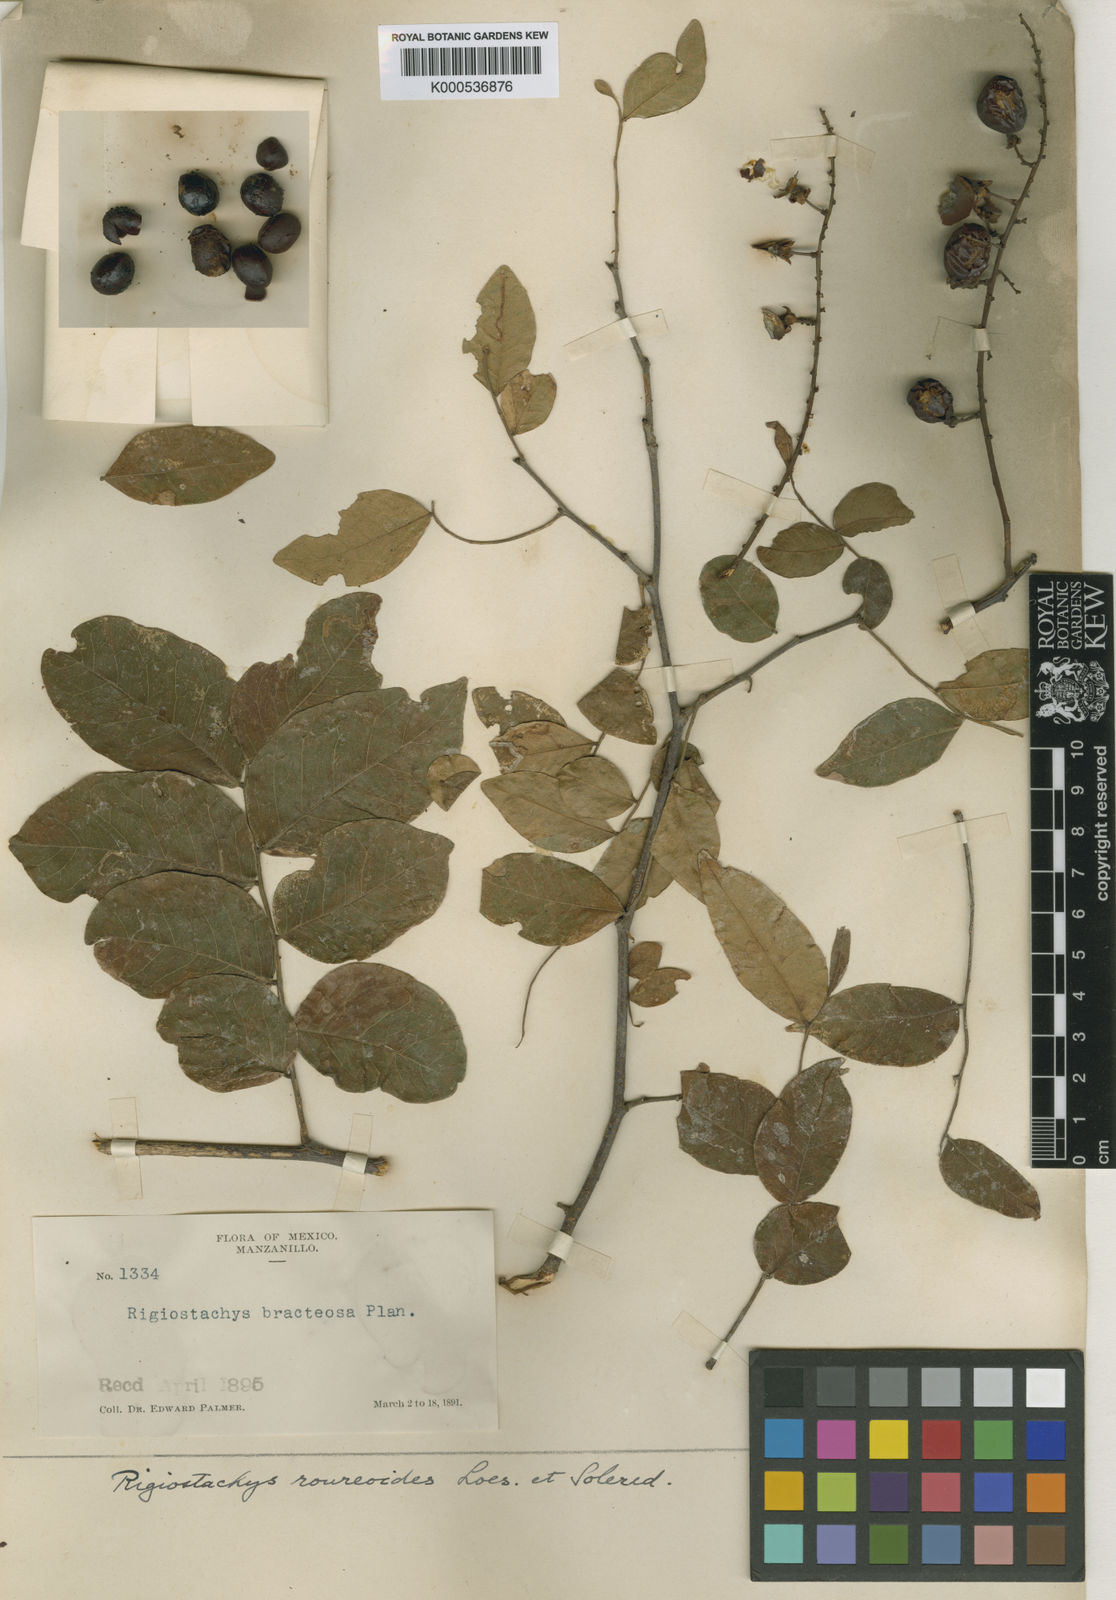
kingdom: Plantae
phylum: Tracheophyta
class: Magnoliopsida
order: Fabales
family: Surianaceae
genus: Recchia
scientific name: Recchia
